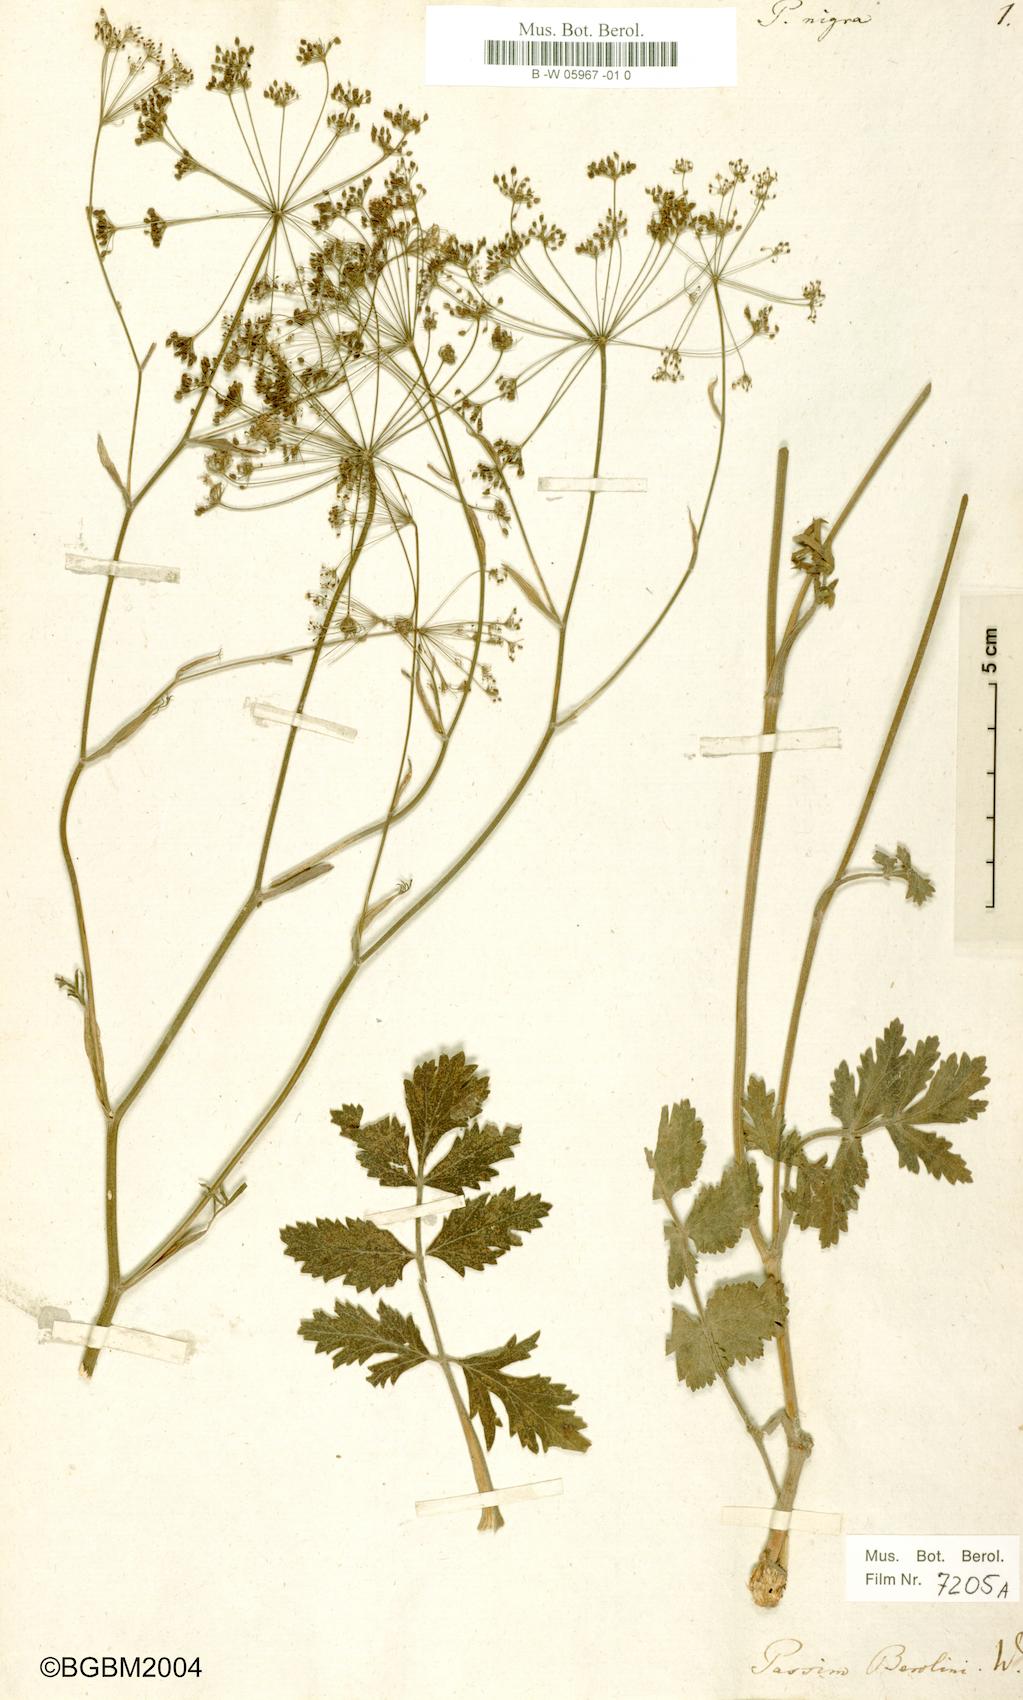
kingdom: Plantae
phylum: Tracheophyta
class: Magnoliopsida
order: Apiales
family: Apiaceae
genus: Pimpinella
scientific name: Pimpinella nigra
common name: Black pimpinella
